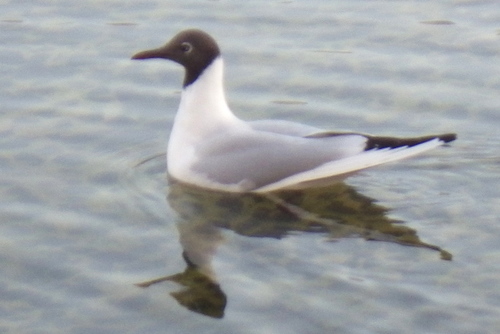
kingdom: Animalia
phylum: Chordata
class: Aves
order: Charadriiformes
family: Laridae
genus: Chroicocephalus
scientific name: Chroicocephalus ridibundus
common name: Black-headed gull
